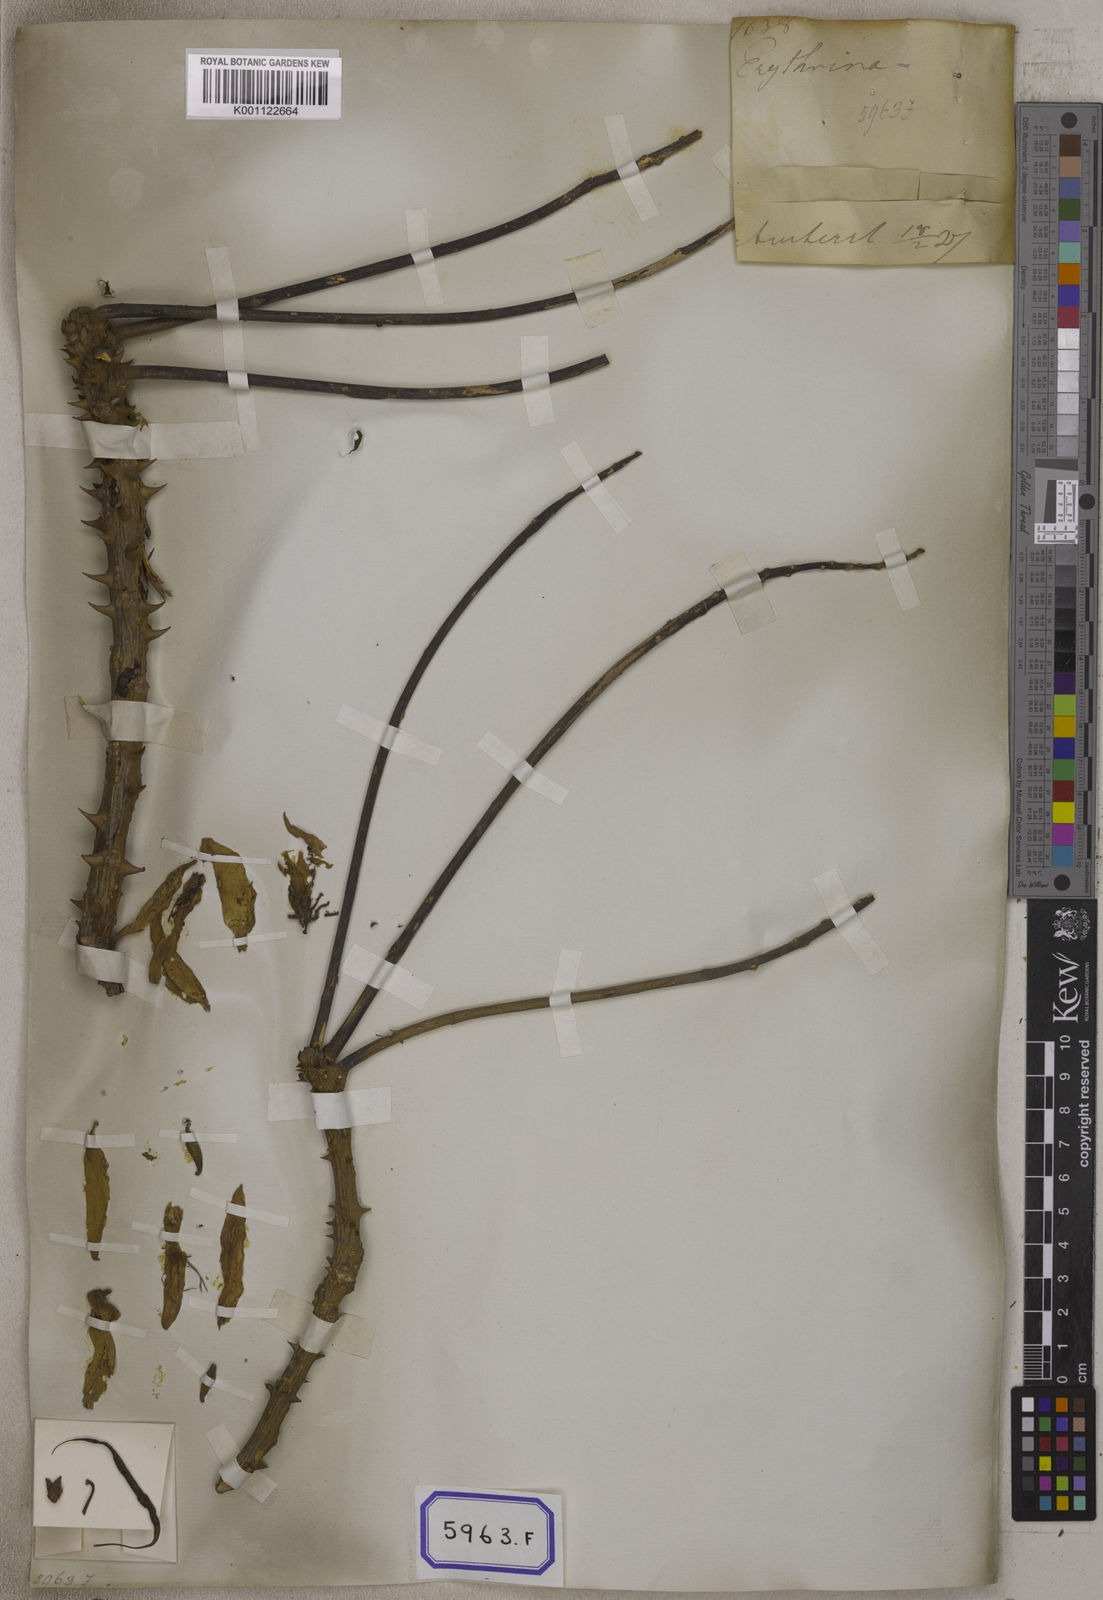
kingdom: Plantae
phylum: Tracheophyta
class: Magnoliopsida
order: Fabales
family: Fabaceae
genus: Erythrina
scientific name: Erythrina variegata
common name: Indian coral tree
